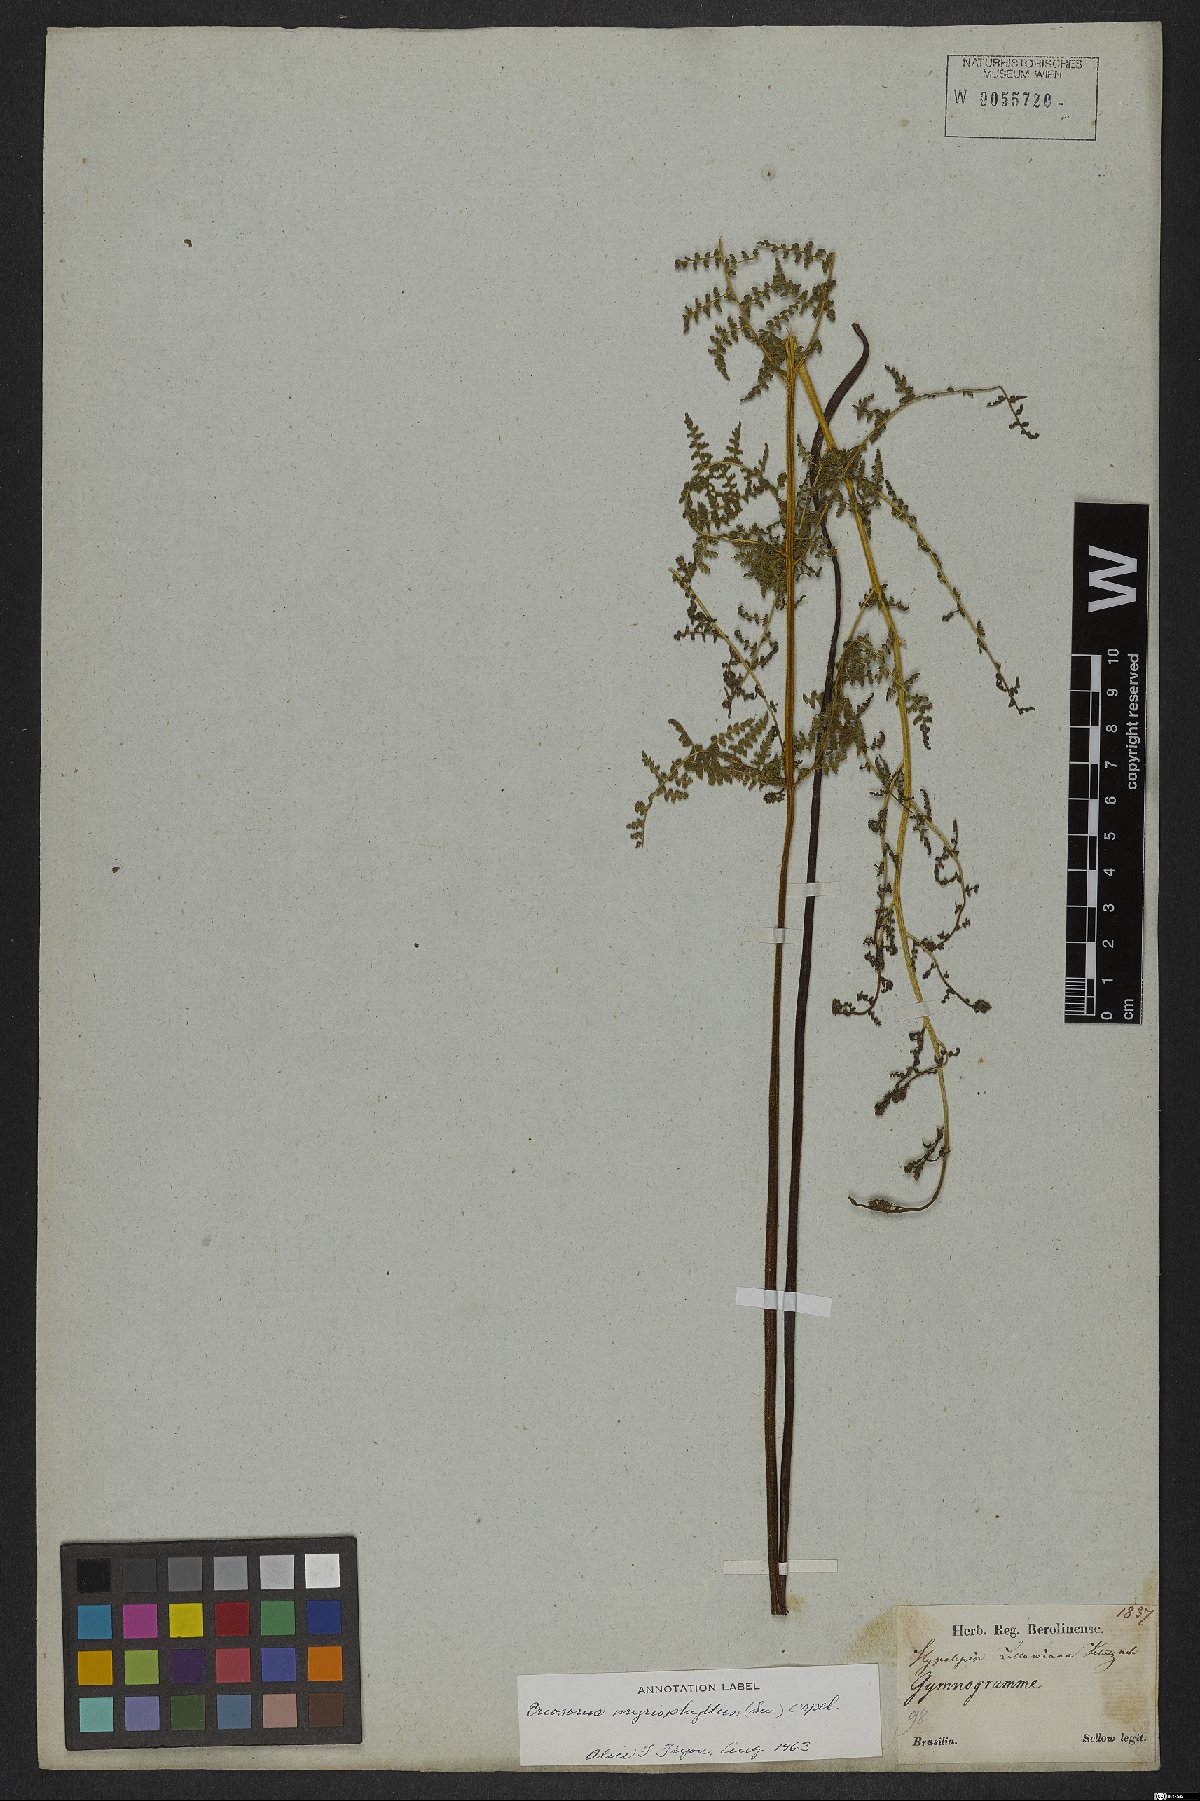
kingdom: Plantae
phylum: Tracheophyta
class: Polypodiopsida
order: Polypodiales
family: Pteridaceae
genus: Tryonia
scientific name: Tryonia myriophylla
